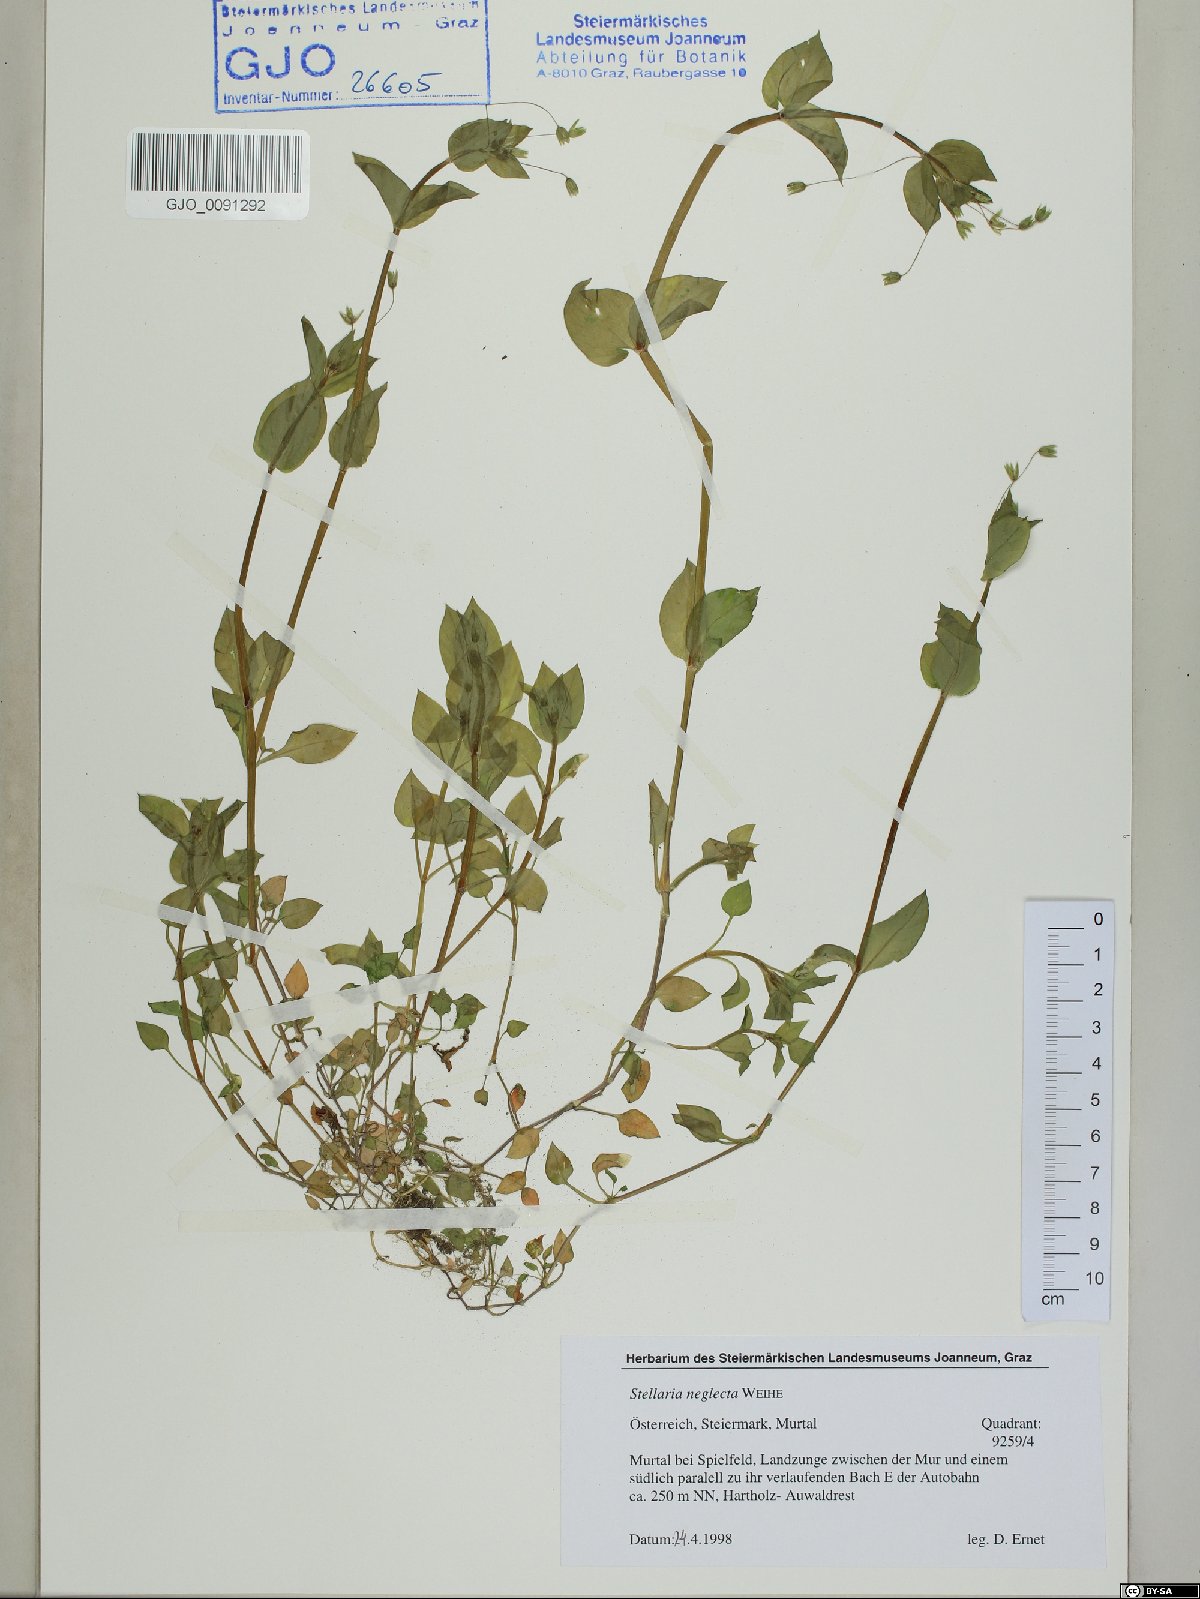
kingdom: Plantae
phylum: Tracheophyta
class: Magnoliopsida
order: Caryophyllales
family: Caryophyllaceae
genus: Stellaria
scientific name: Stellaria neglecta
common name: Greater chickweed
